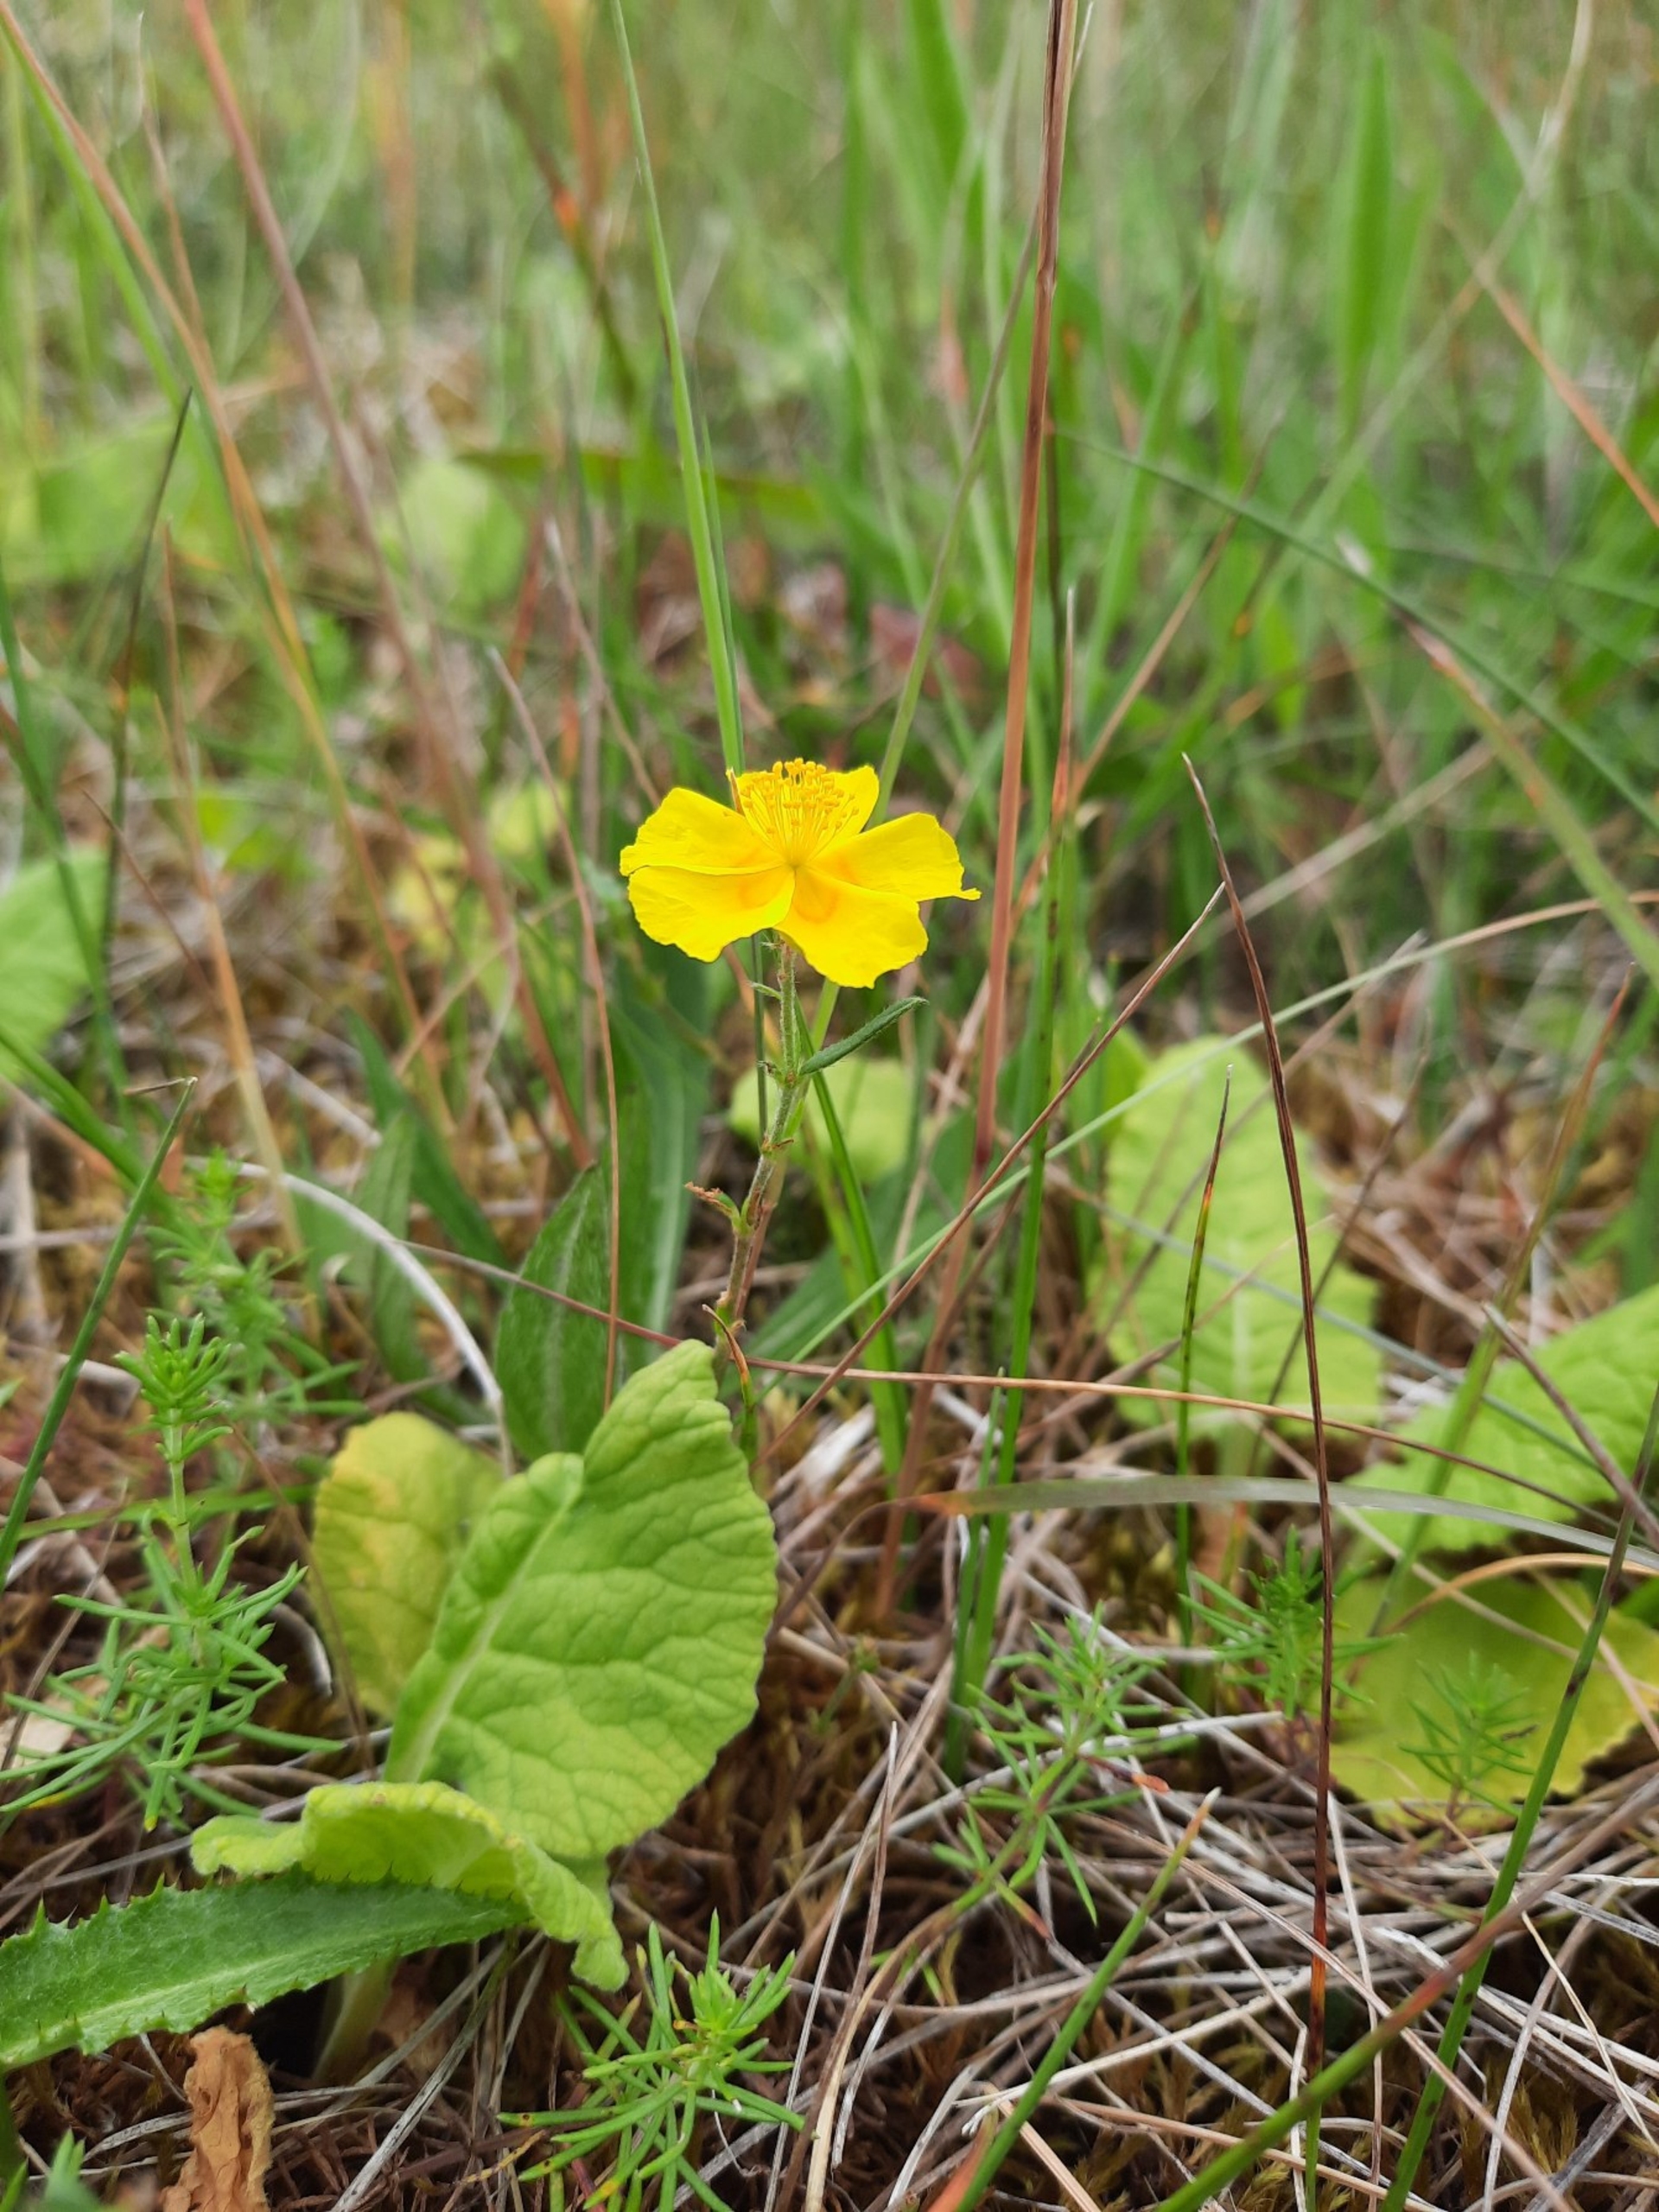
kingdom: Plantae
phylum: Tracheophyta
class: Magnoliopsida
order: Malvales
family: Cistaceae
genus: Helianthemum
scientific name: Helianthemum nummularium
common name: Soløje
